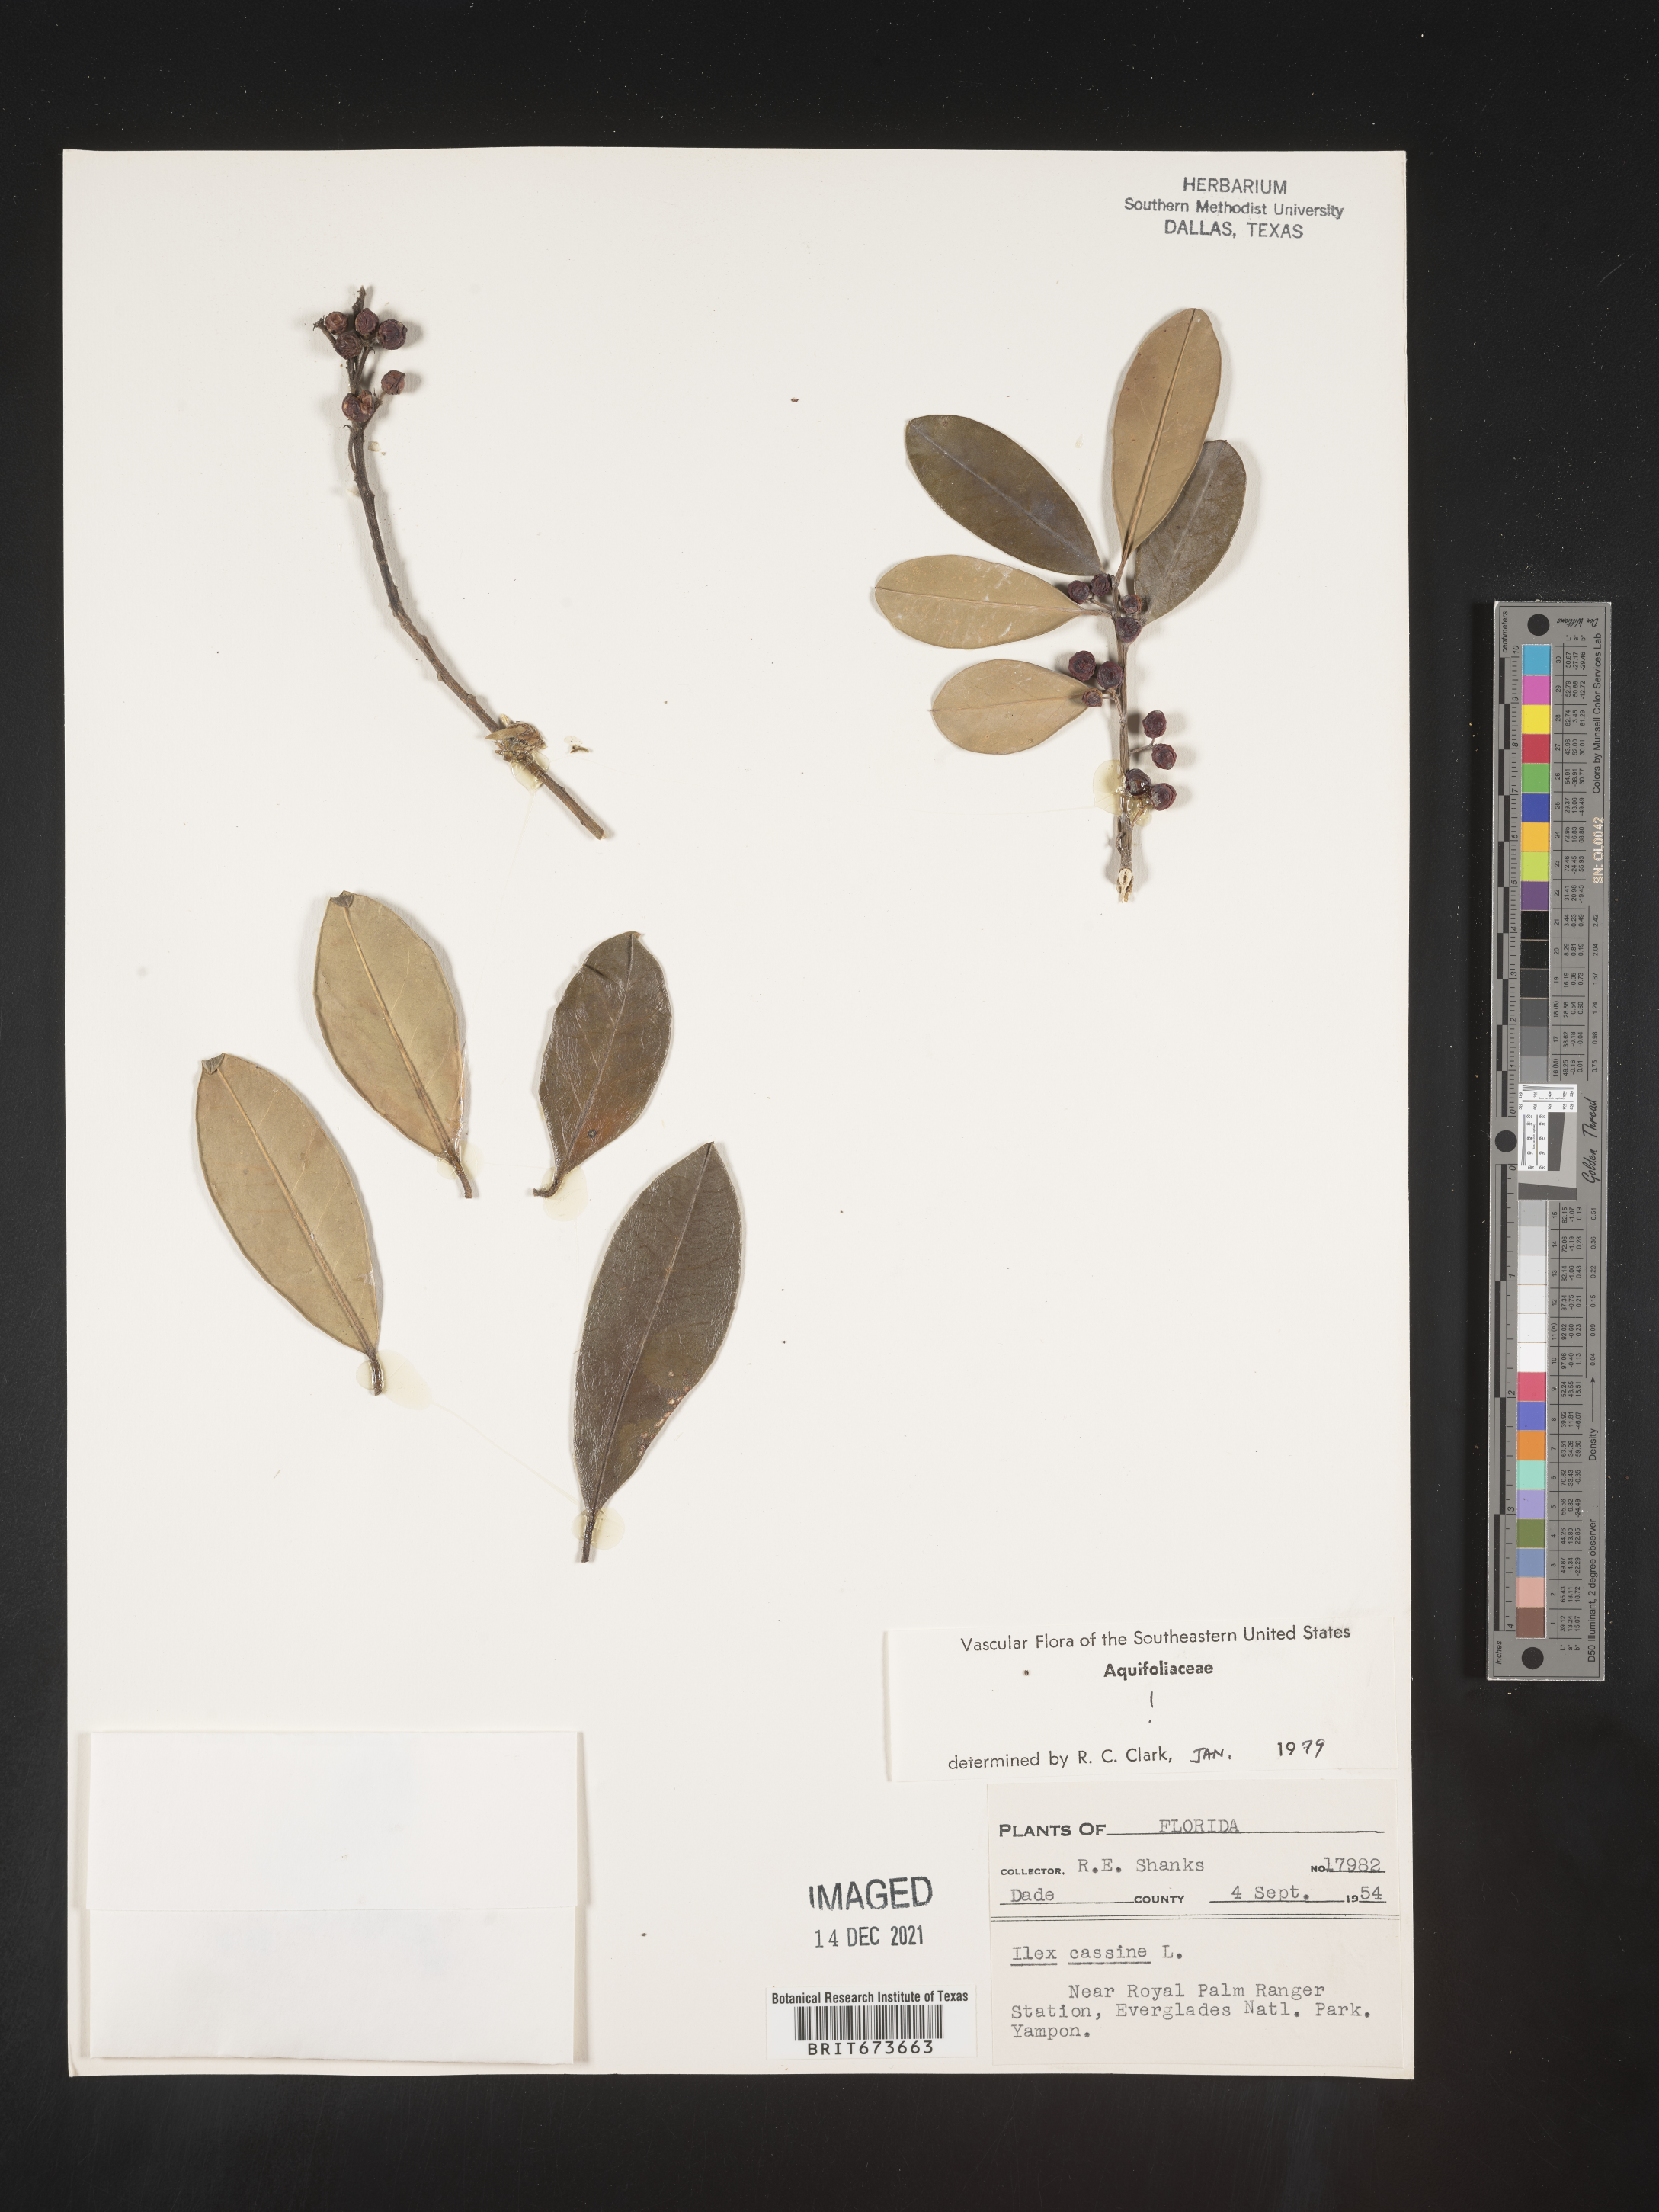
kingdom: Plantae
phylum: Tracheophyta
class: Magnoliopsida
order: Aquifoliales
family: Aquifoliaceae
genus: Ilex
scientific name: Ilex cassine
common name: Dahoon
